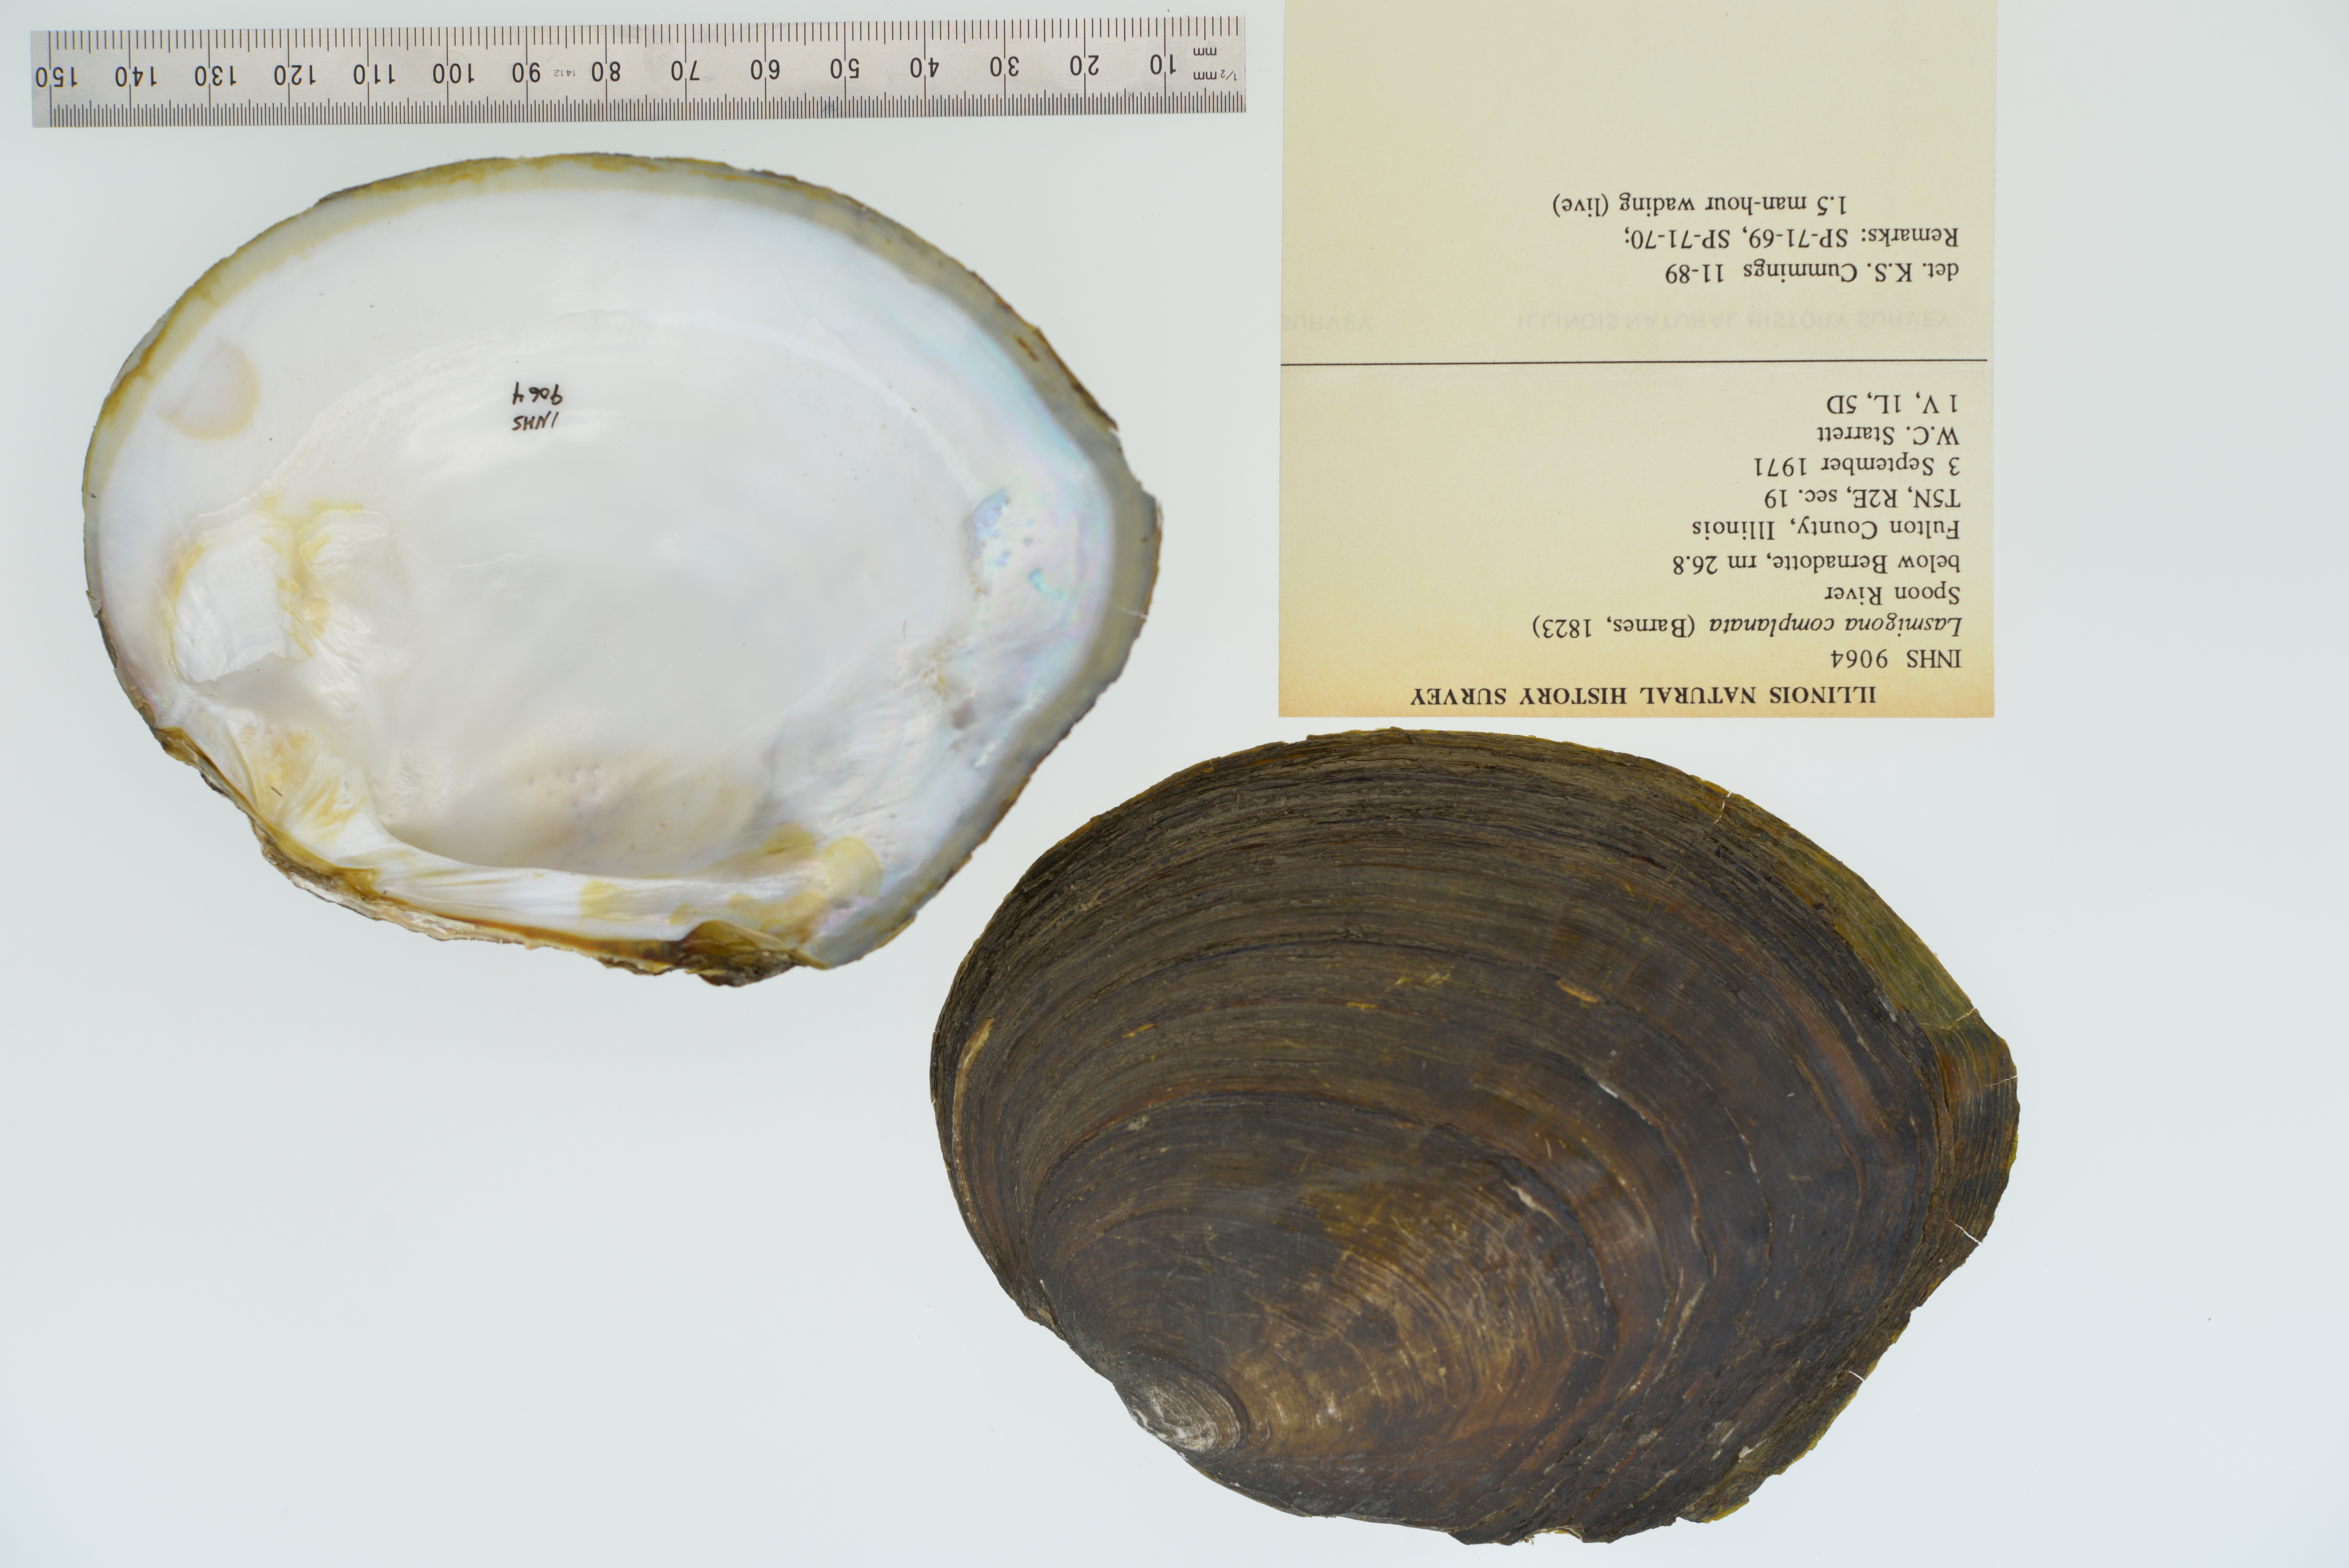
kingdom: Animalia
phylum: Mollusca
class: Bivalvia
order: Unionida
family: Unionidae
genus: Lasmigona
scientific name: Lasmigona complanata
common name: White heelsplitter
